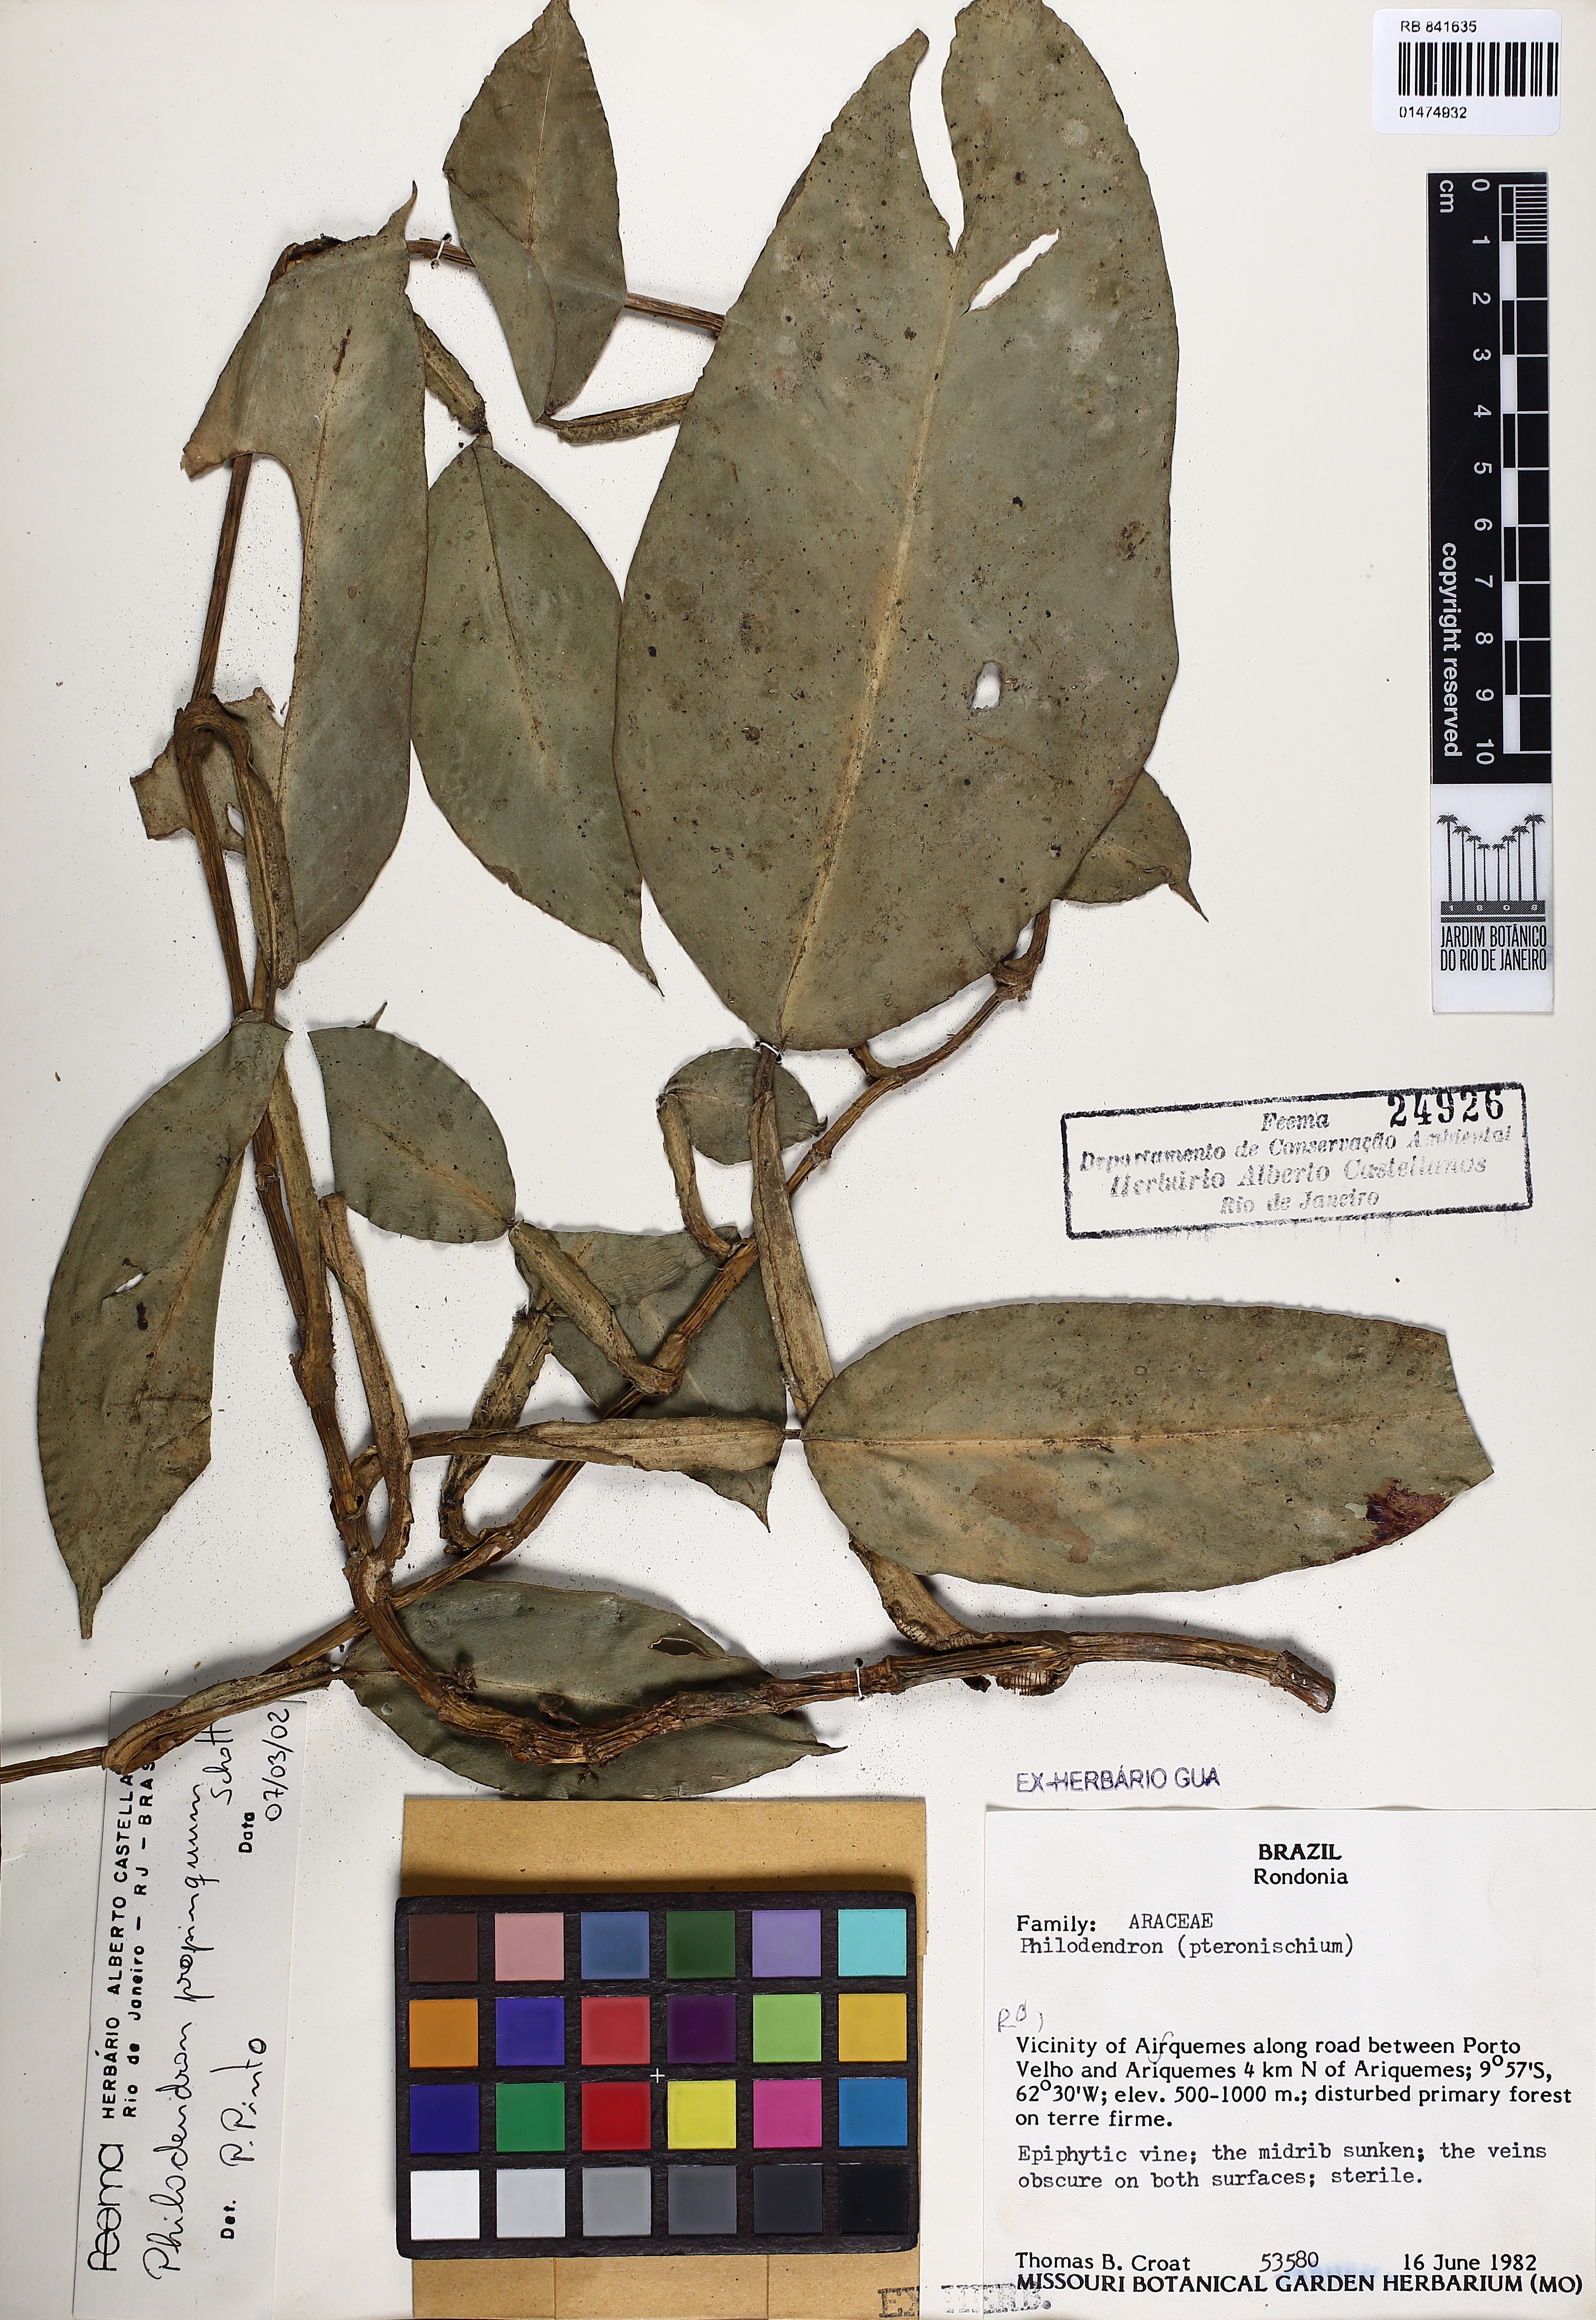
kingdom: Plantae
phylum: Tracheophyta
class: Liliopsida
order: Alismatales
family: Araceae
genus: Philodendron
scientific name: Philodendron propinquum
